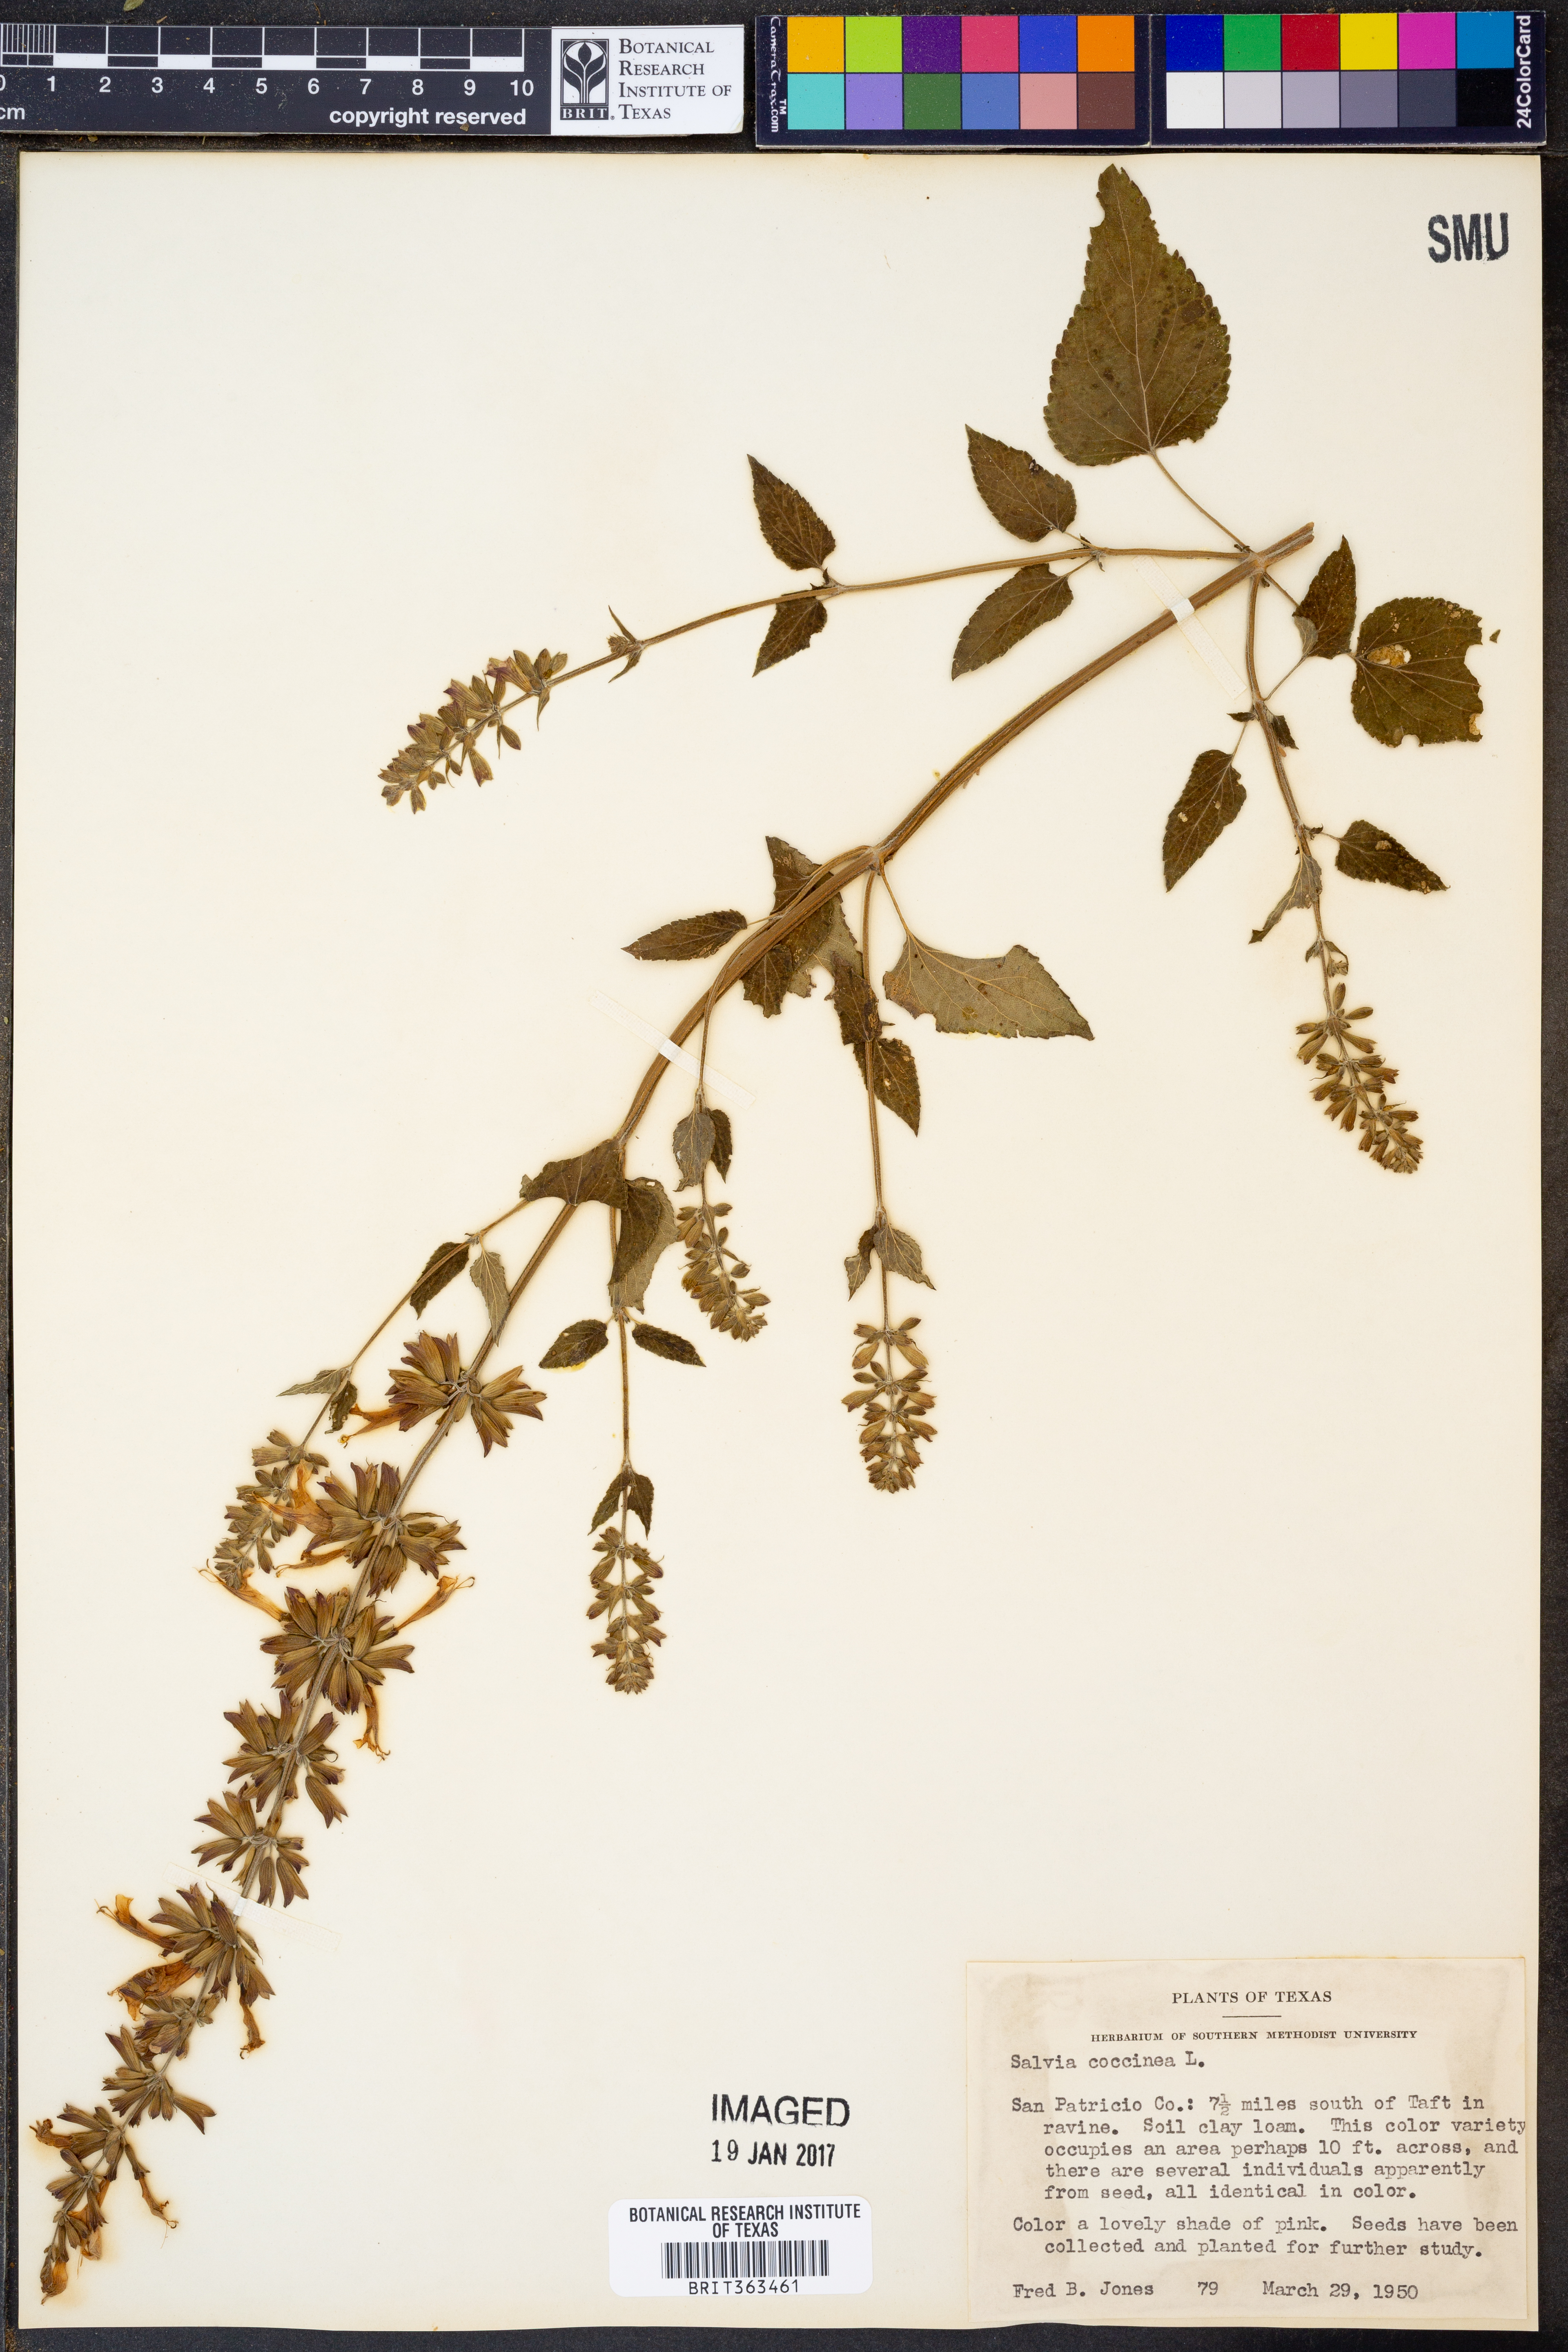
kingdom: Plantae
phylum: Tracheophyta
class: Magnoliopsida
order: Lamiales
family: Lamiaceae
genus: Salvia
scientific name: Salvia coccinea
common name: Blood sage
